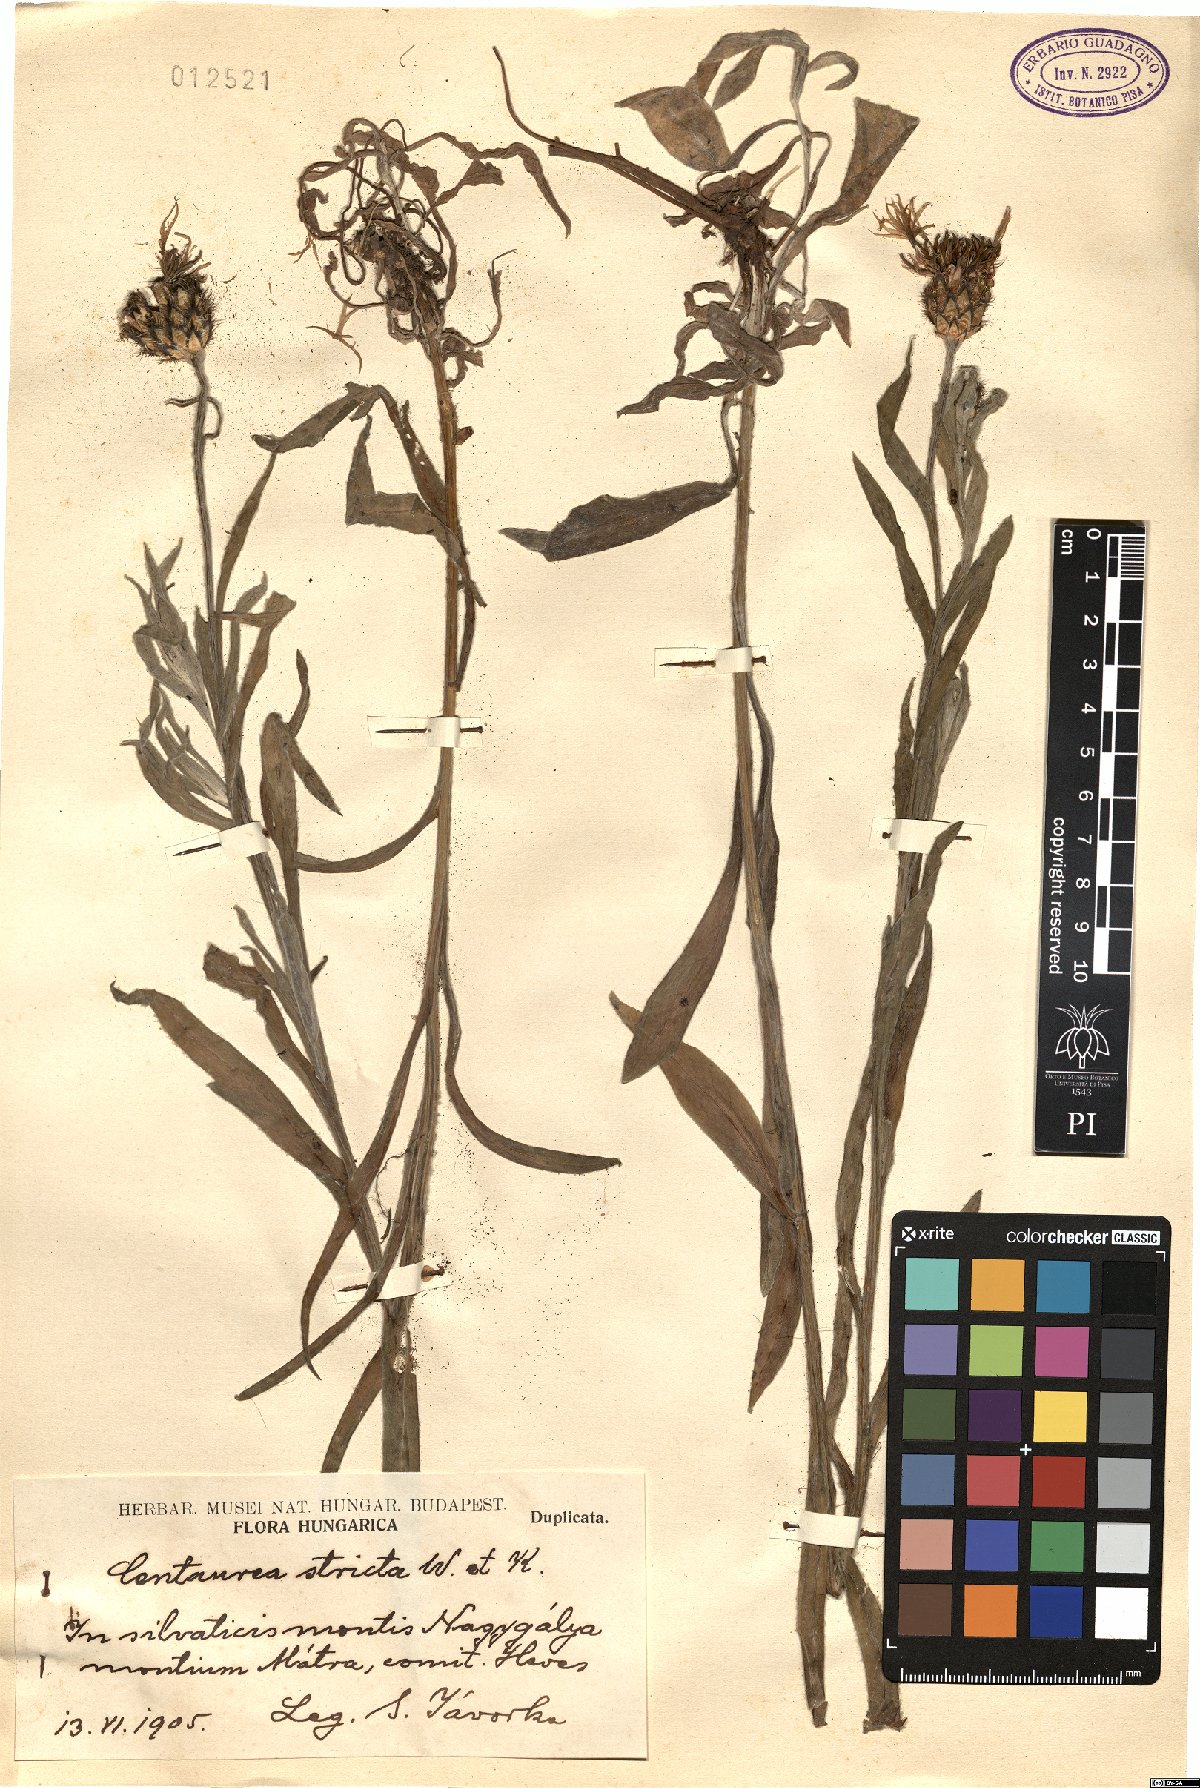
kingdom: Plantae
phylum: Tracheophyta
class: Magnoliopsida
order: Asterales
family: Asteraceae
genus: Centaurea
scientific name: Centaurea stricta
